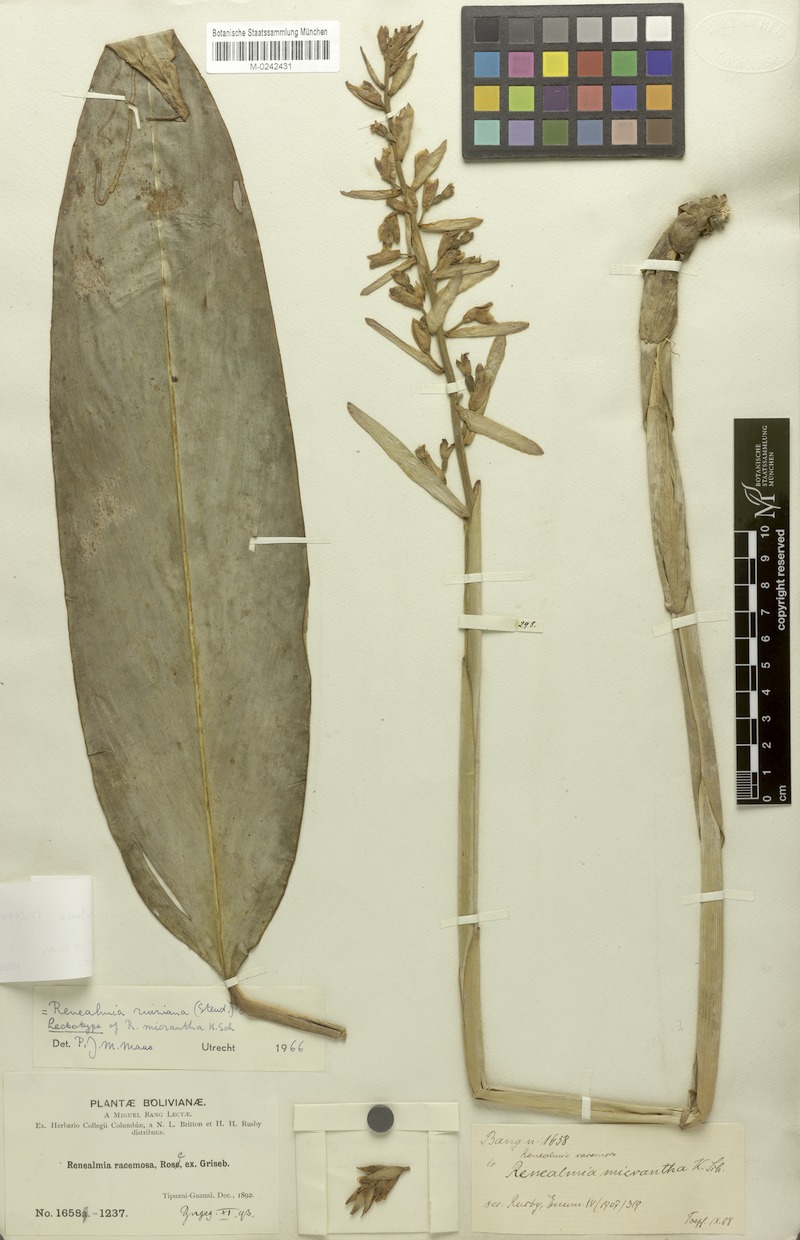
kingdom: Plantae
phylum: Tracheophyta
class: Liliopsida
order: Zingiberales
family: Zingiberaceae
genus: Renealmia
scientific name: Renealmia racemosa
